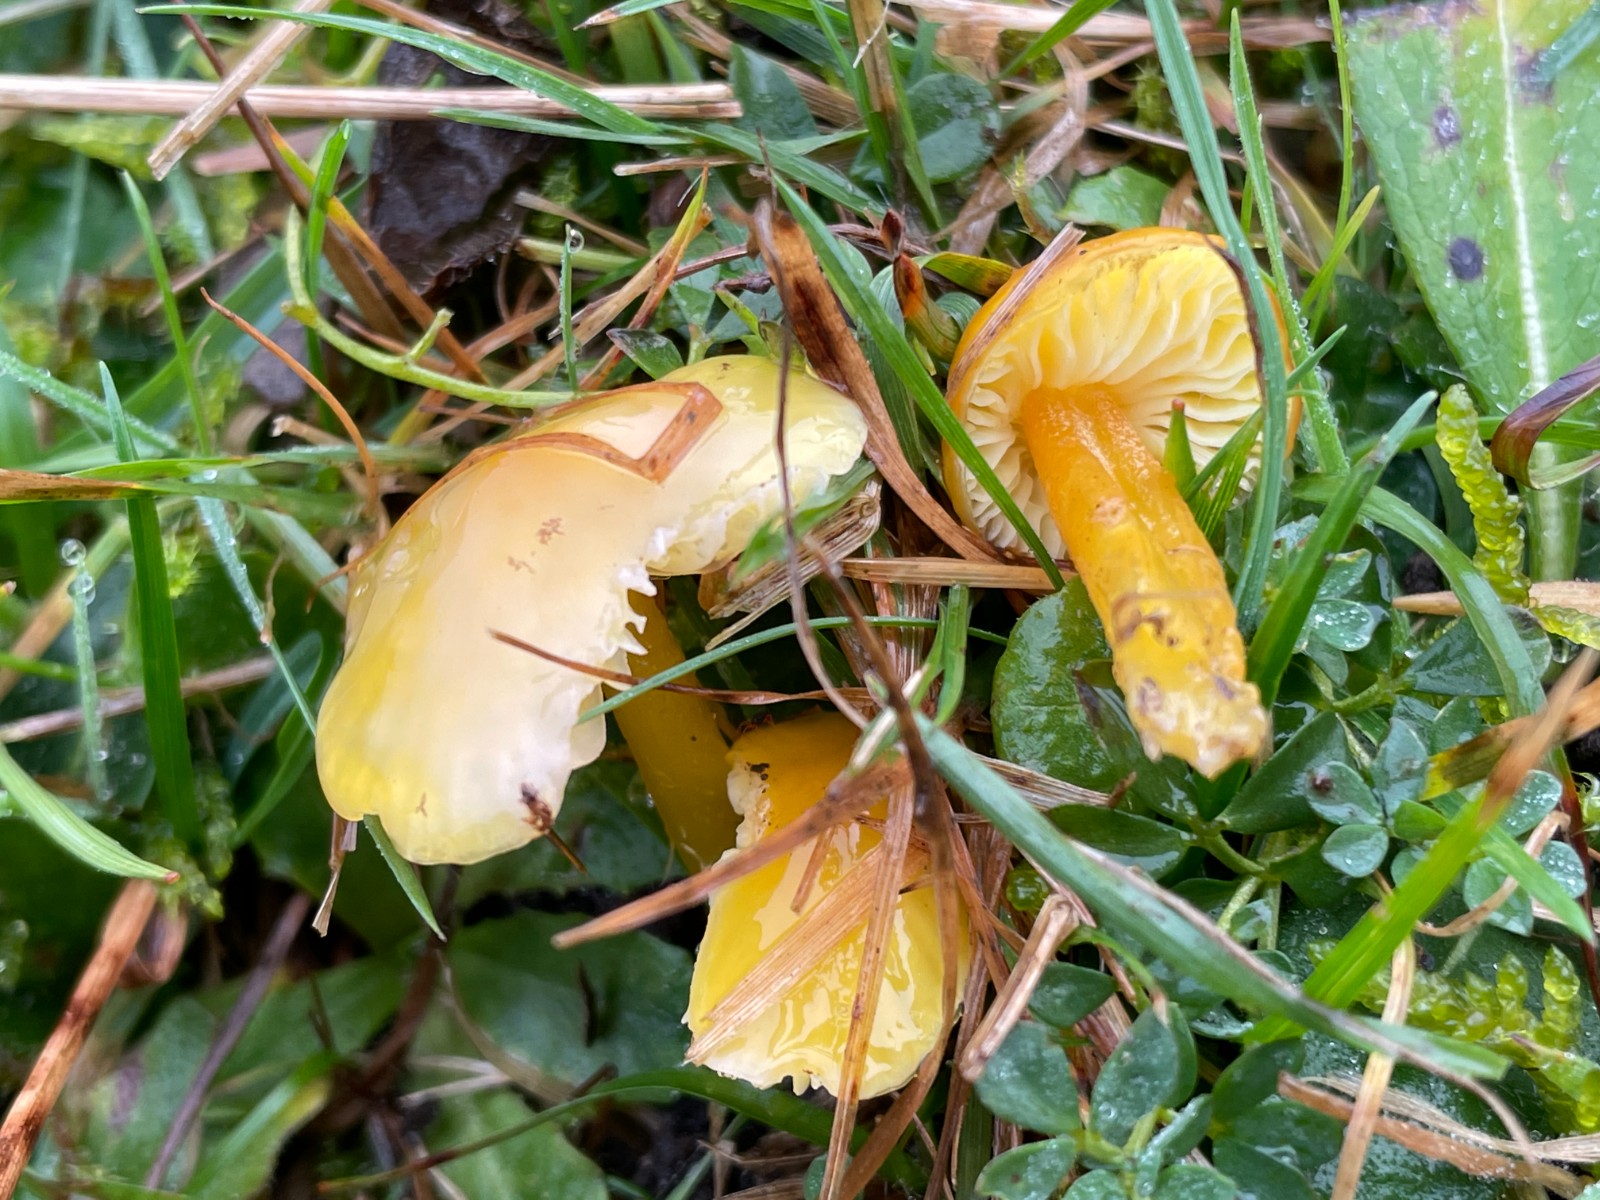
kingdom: Fungi
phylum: Basidiomycota
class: Agaricomycetes
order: Agaricales
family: Hygrophoraceae
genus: Hygrocybe
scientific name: Hygrocybe chlorophana
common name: gul vokshat
